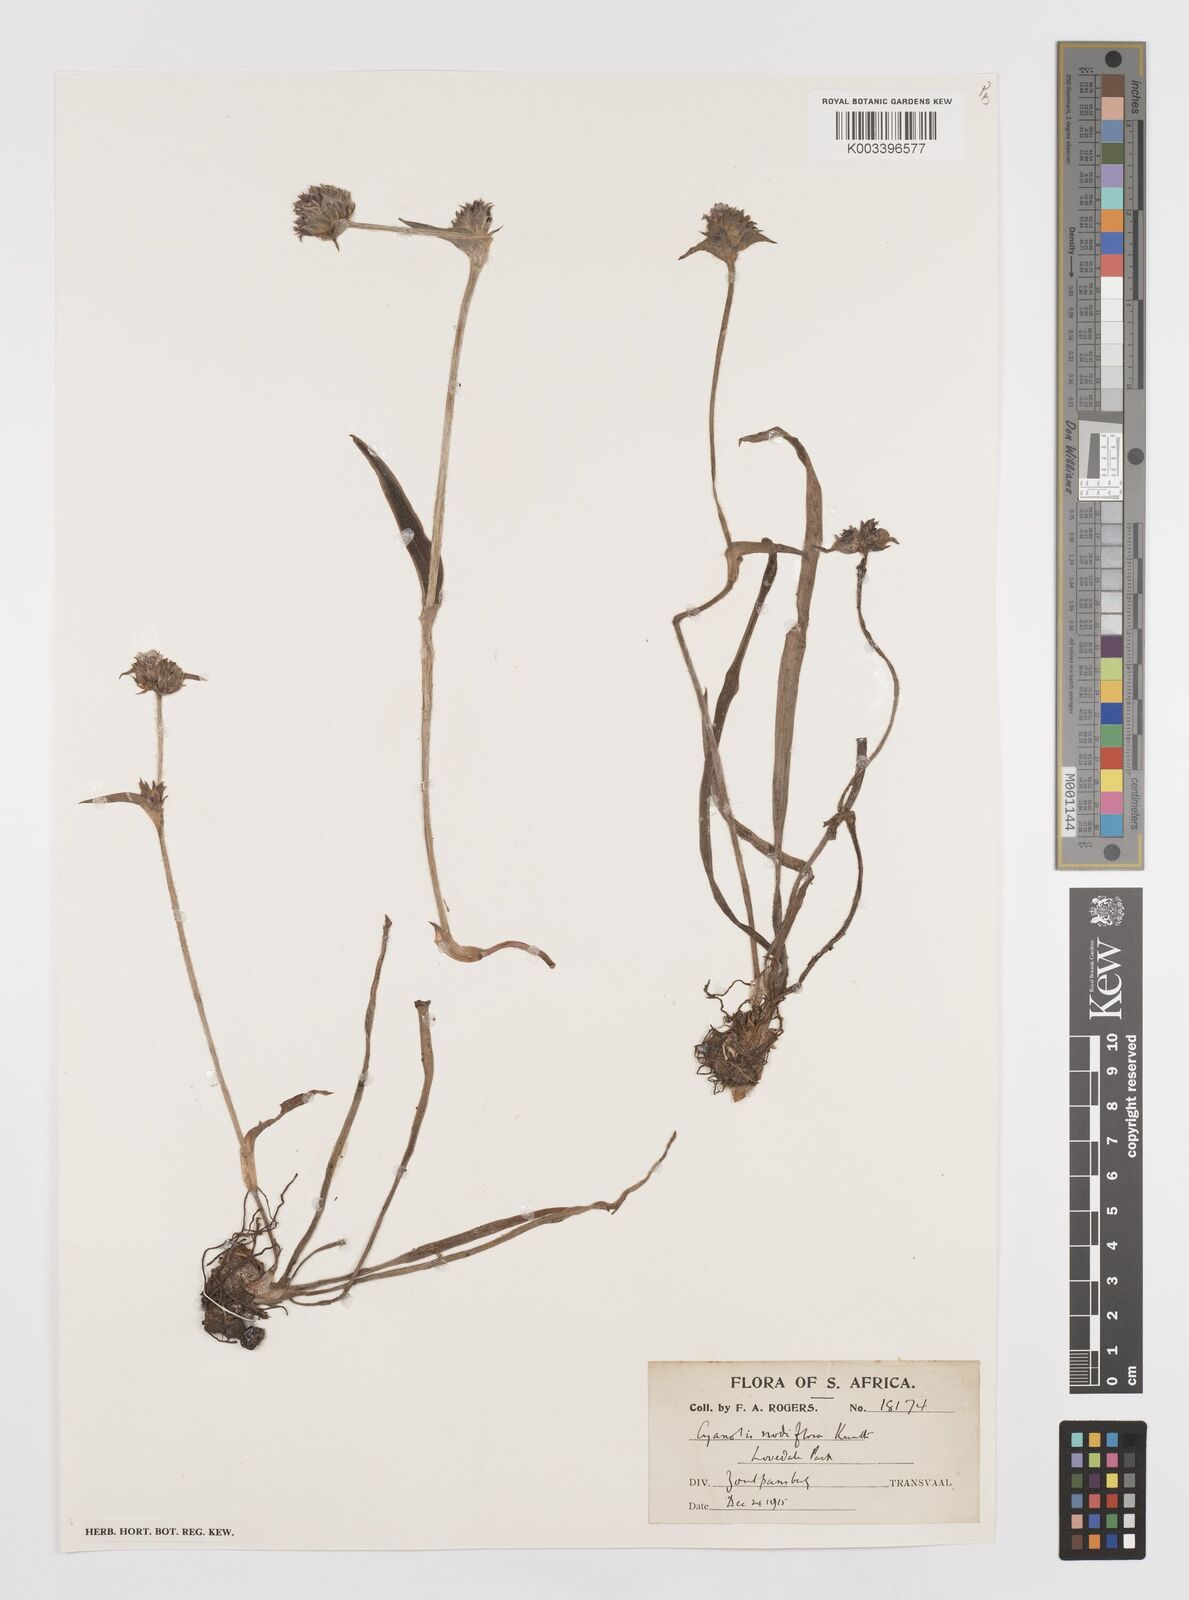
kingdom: Plantae
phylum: Tracheophyta
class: Liliopsida
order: Commelinales
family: Commelinaceae
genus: Cyanotis
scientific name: Cyanotis speciosa
